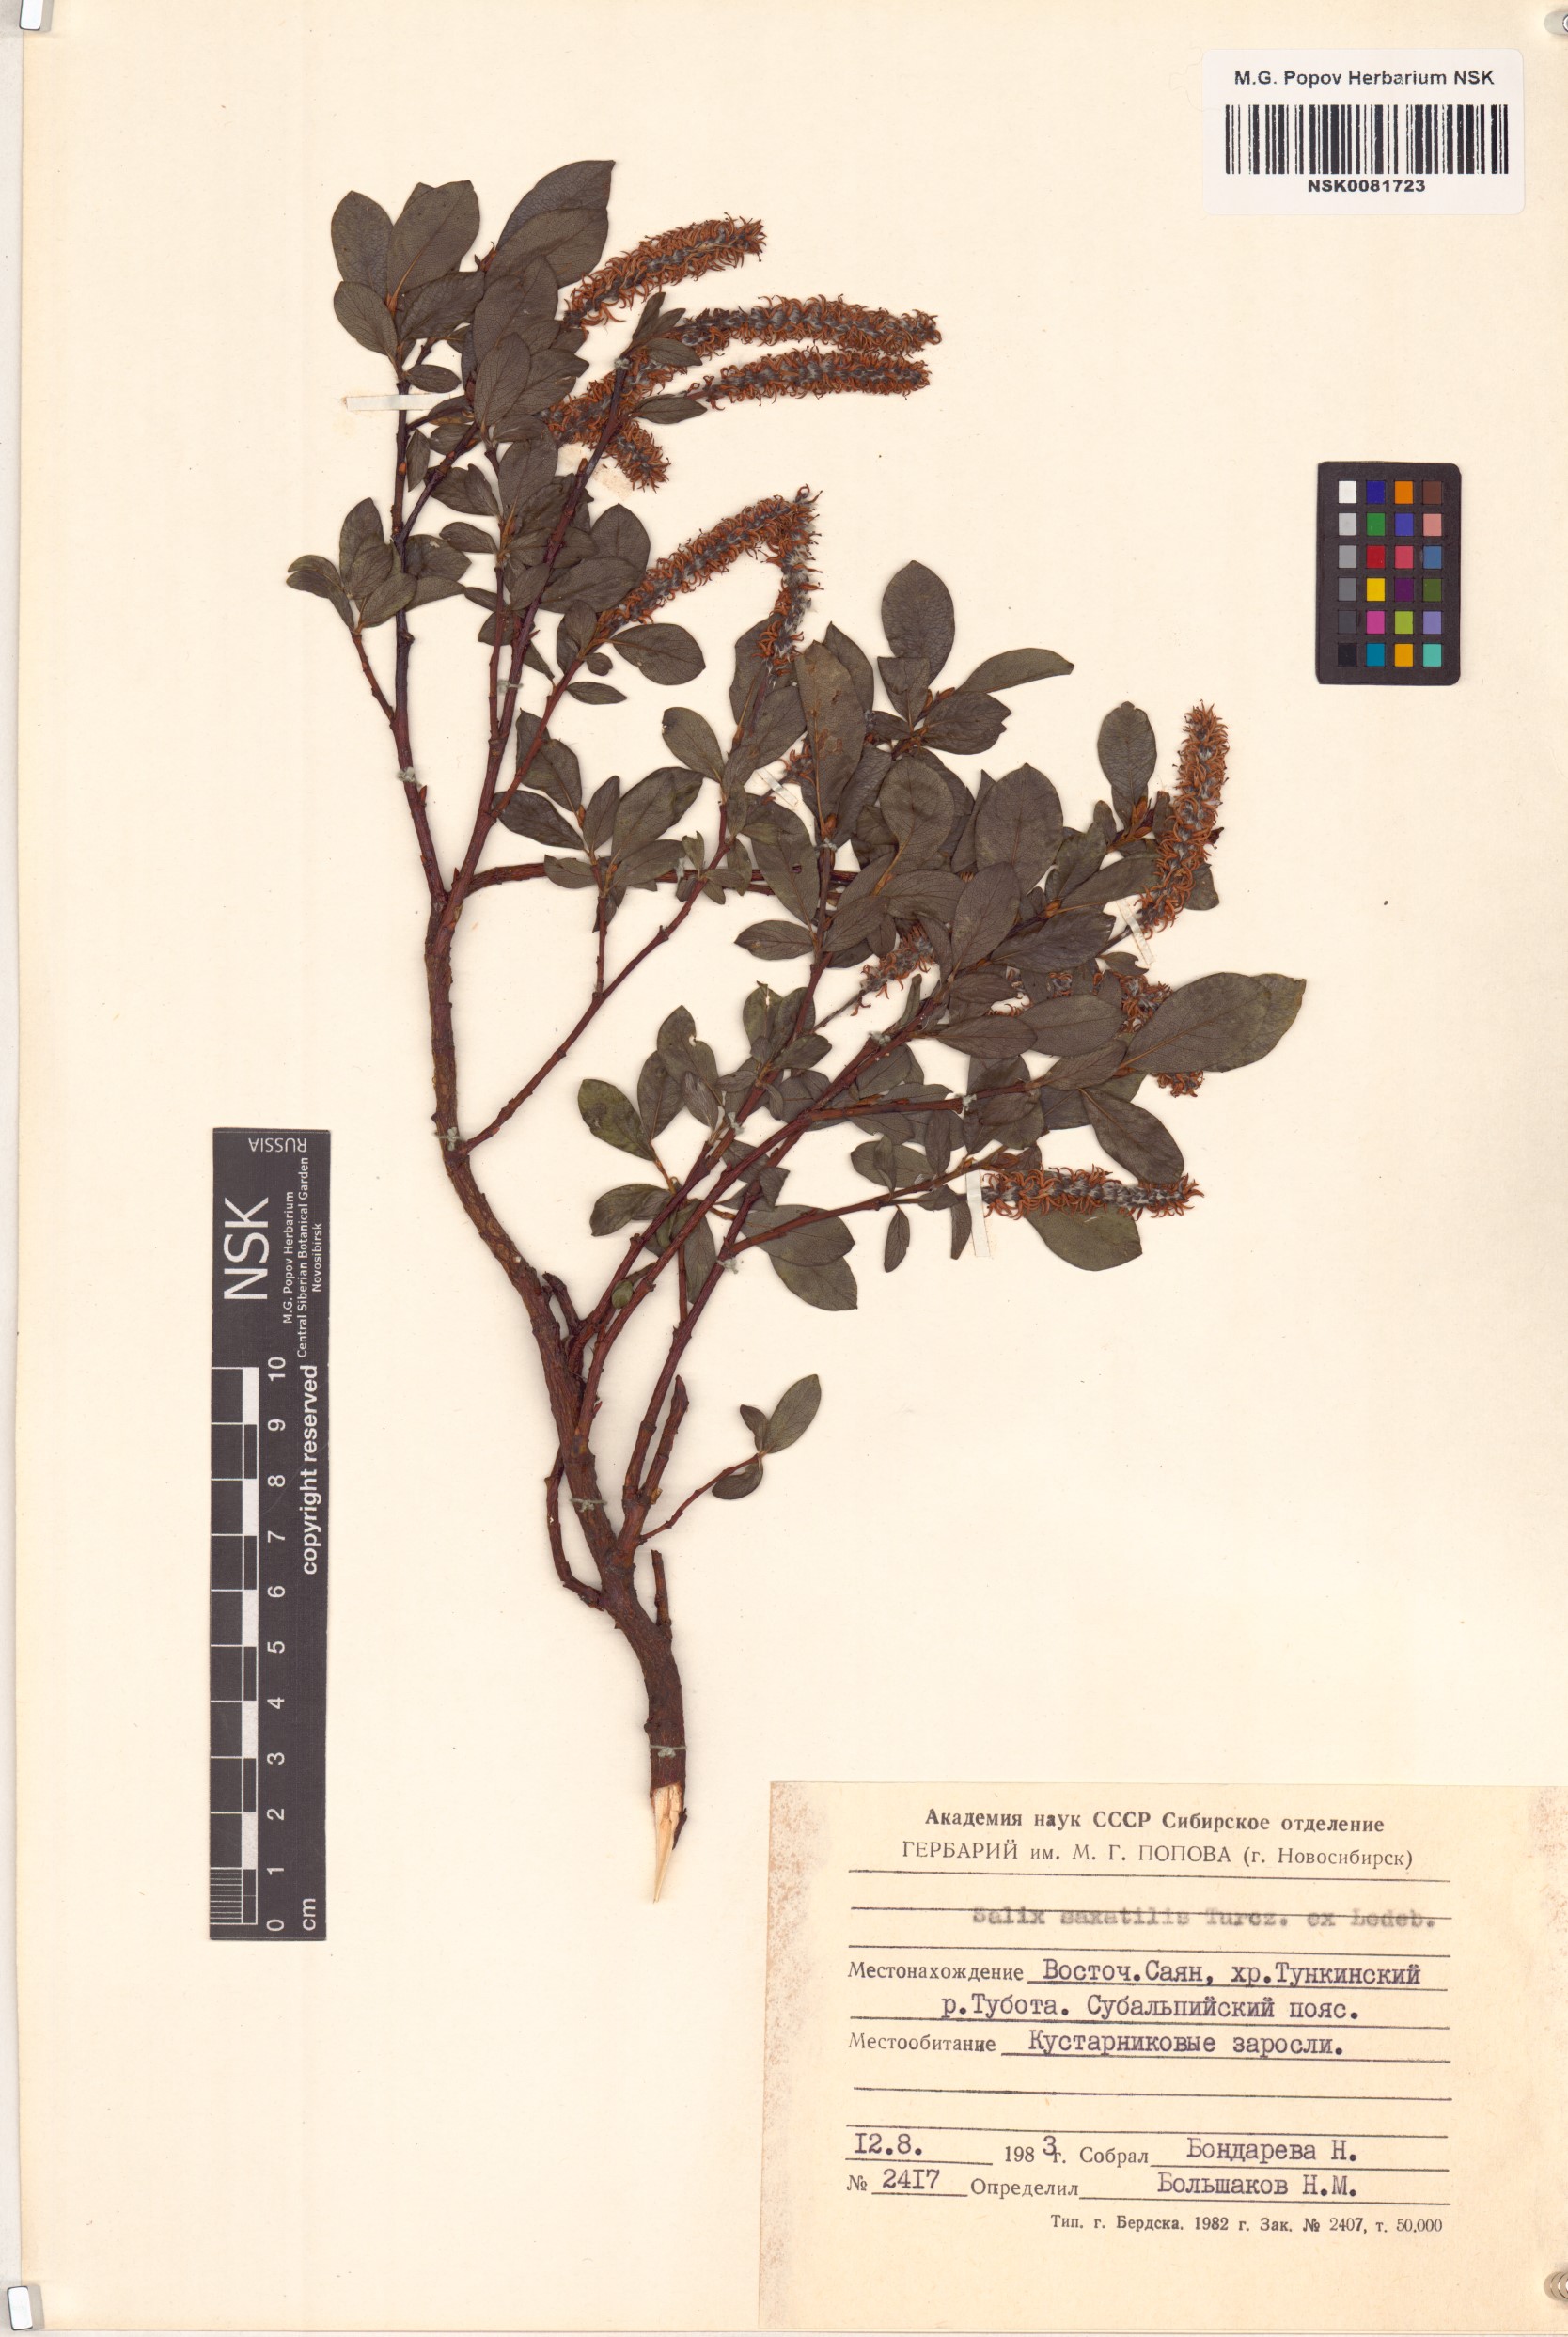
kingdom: Plantae
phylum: Tracheophyta
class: Magnoliopsida
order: Malpighiales
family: Salicaceae
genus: Salix
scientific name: Salix saxatilis
